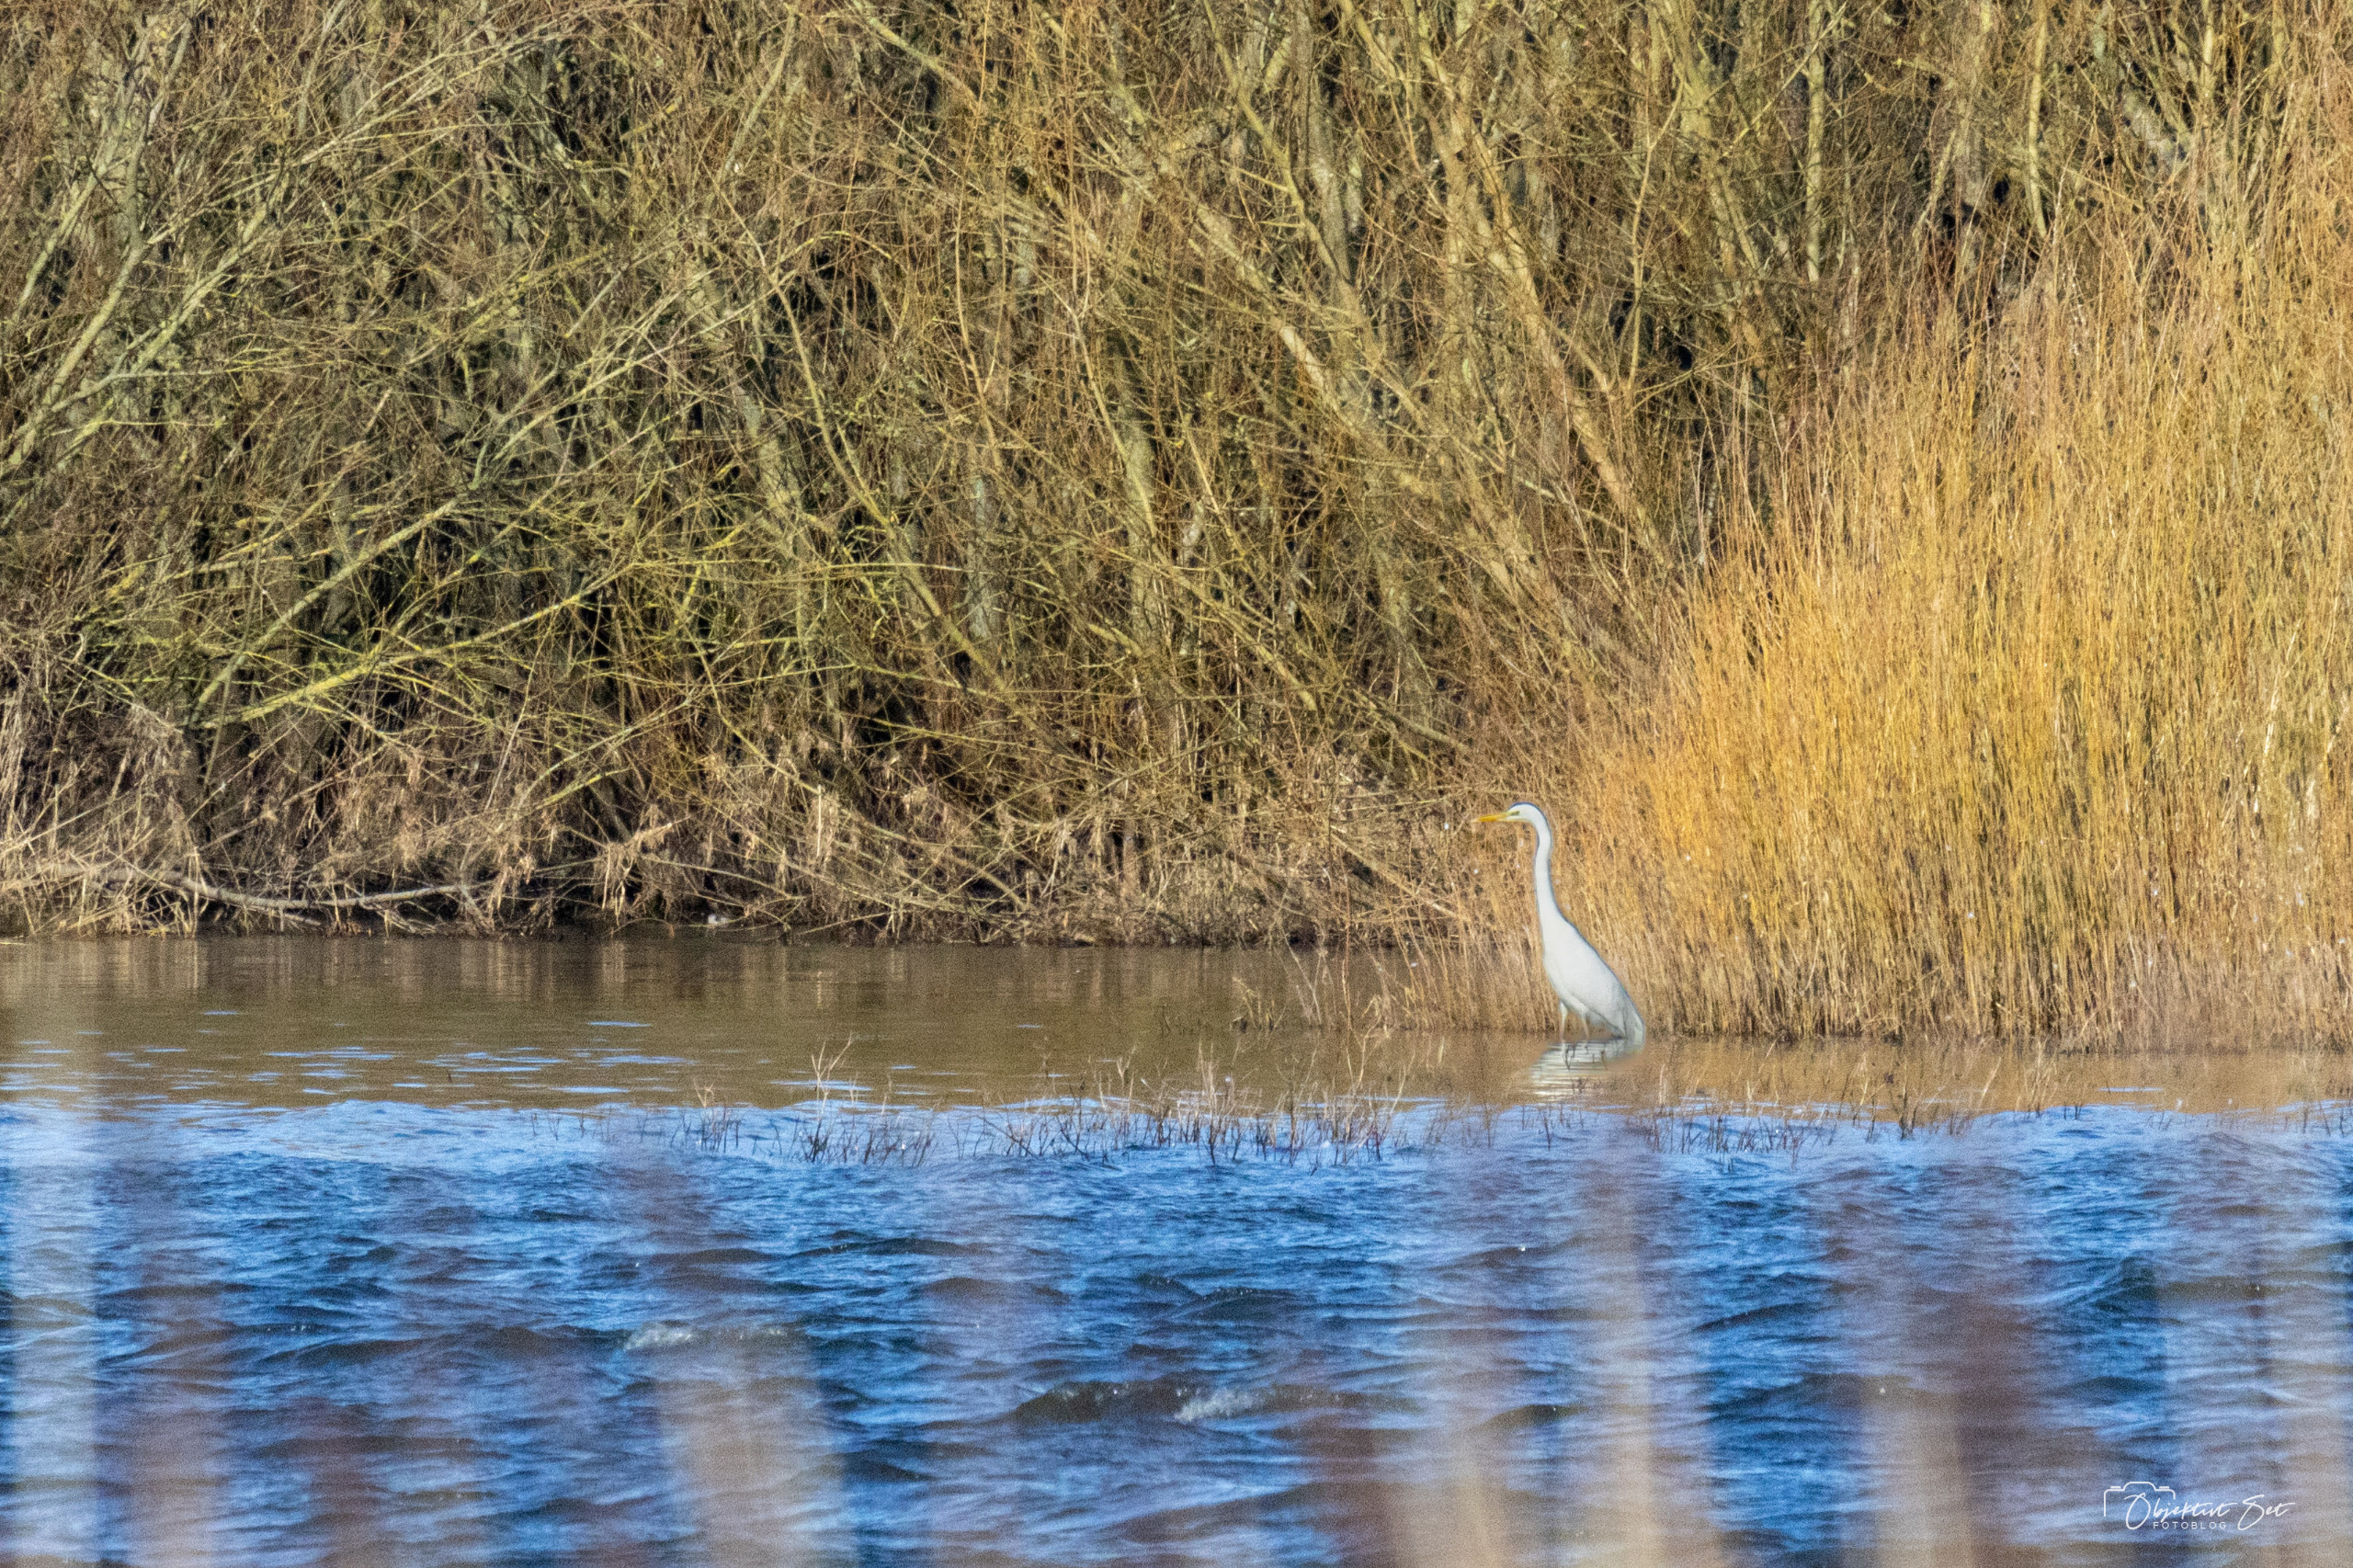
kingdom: Animalia
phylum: Chordata
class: Aves
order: Pelecaniformes
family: Ardeidae
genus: Ardea
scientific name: Ardea alba
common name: Sølvhejre
